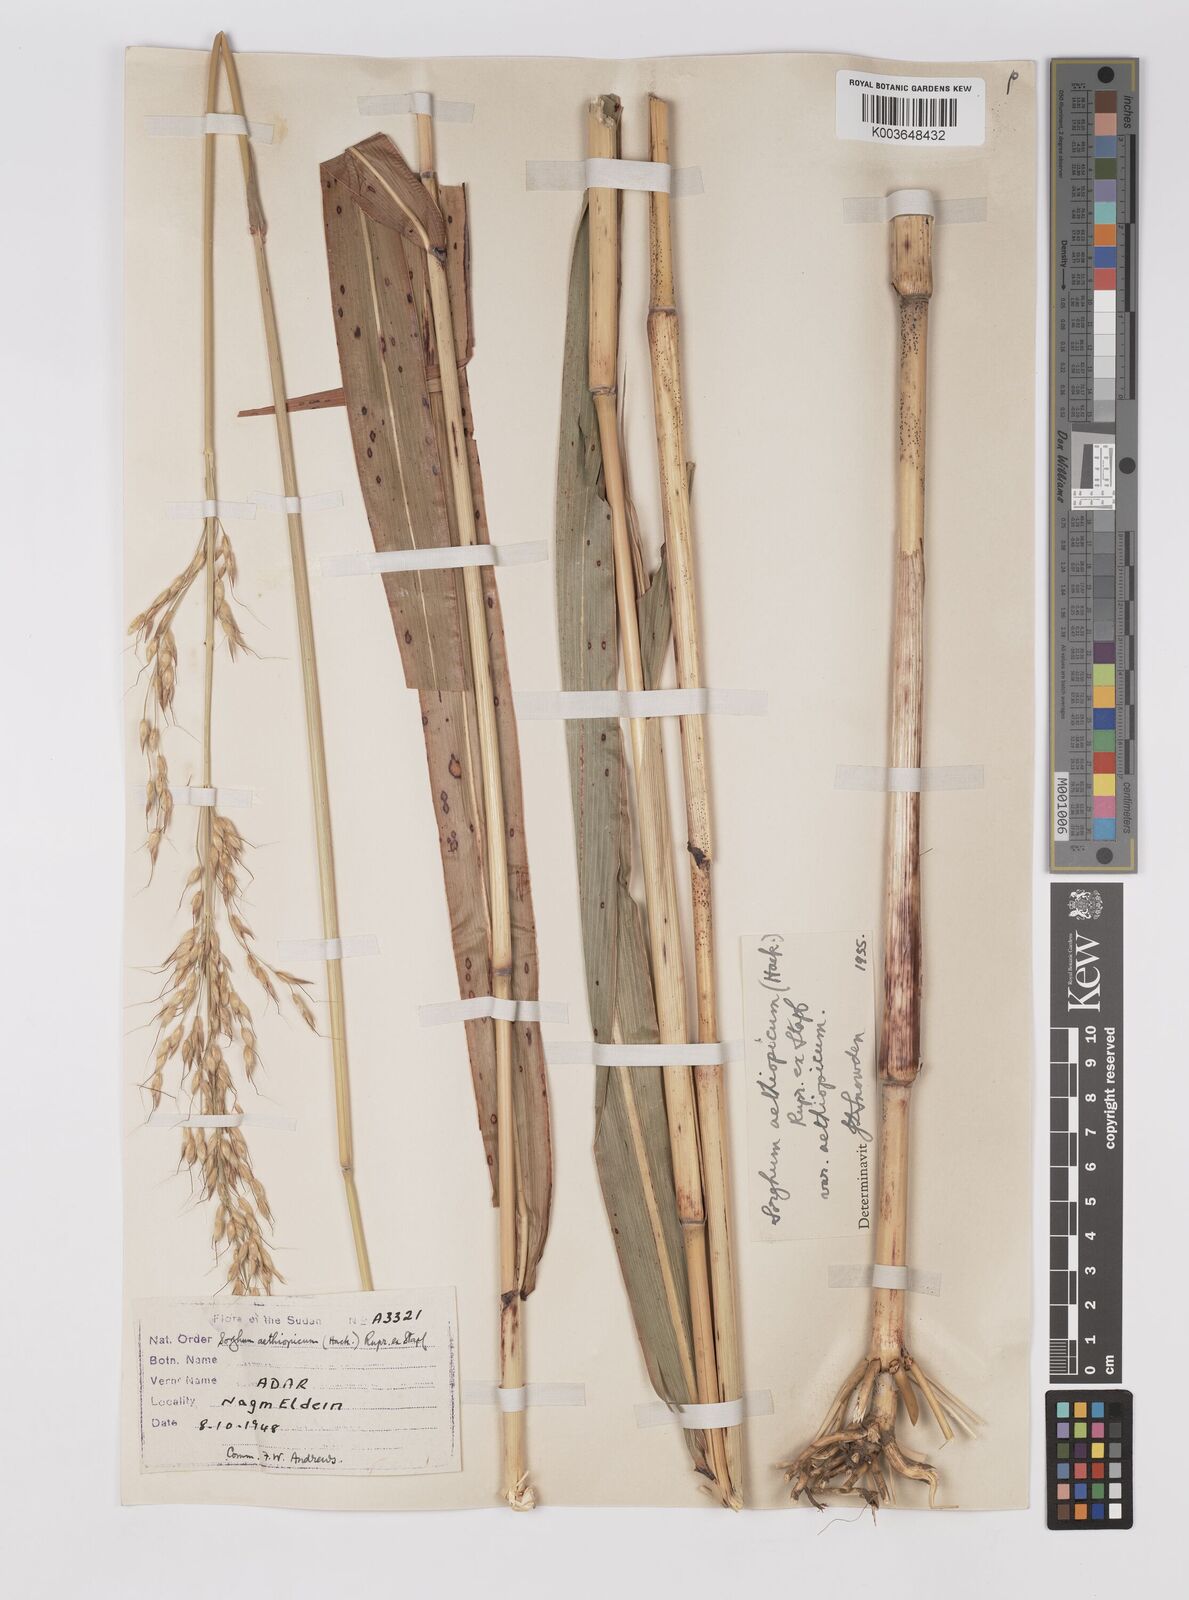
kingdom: Plantae
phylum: Tracheophyta
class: Liliopsida
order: Poales
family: Poaceae
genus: Sorghum
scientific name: Sorghum arundinaceum
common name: Sorghum
